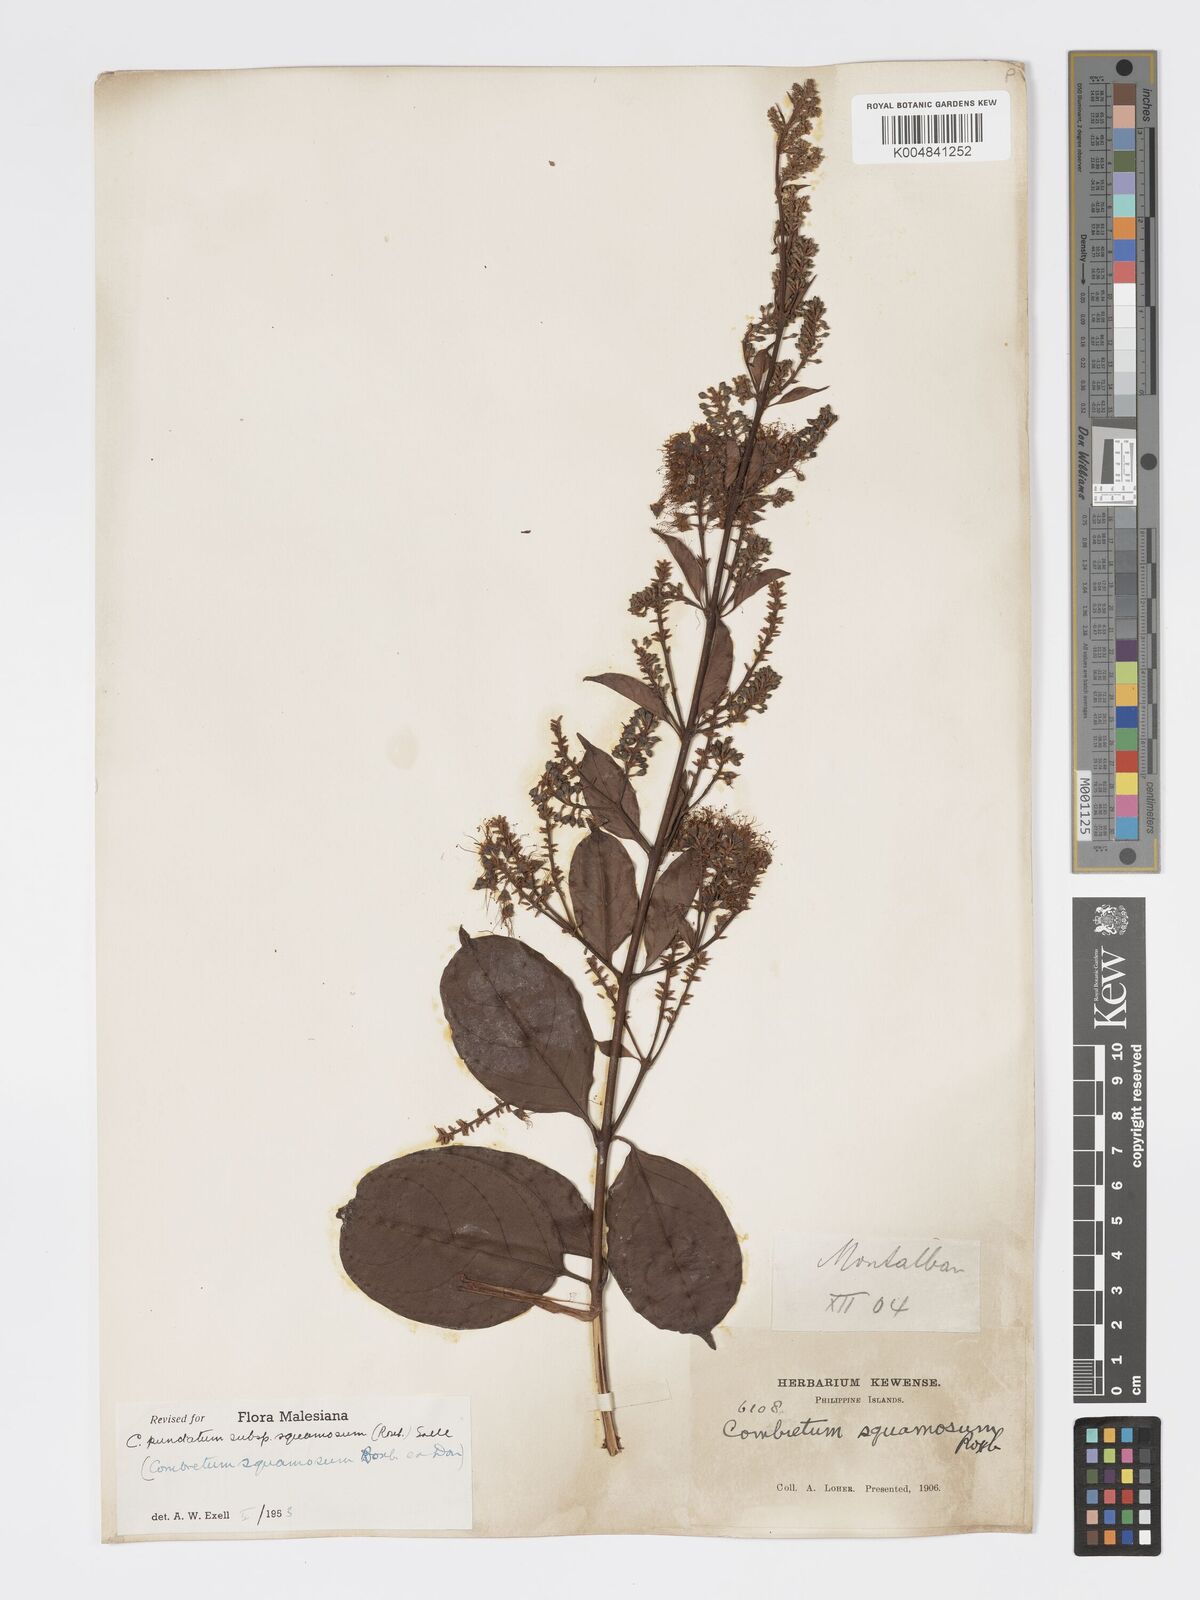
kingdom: Plantae
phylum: Tracheophyta
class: Magnoliopsida
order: Myrtales
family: Combretaceae
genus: Combretum
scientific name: Combretum
